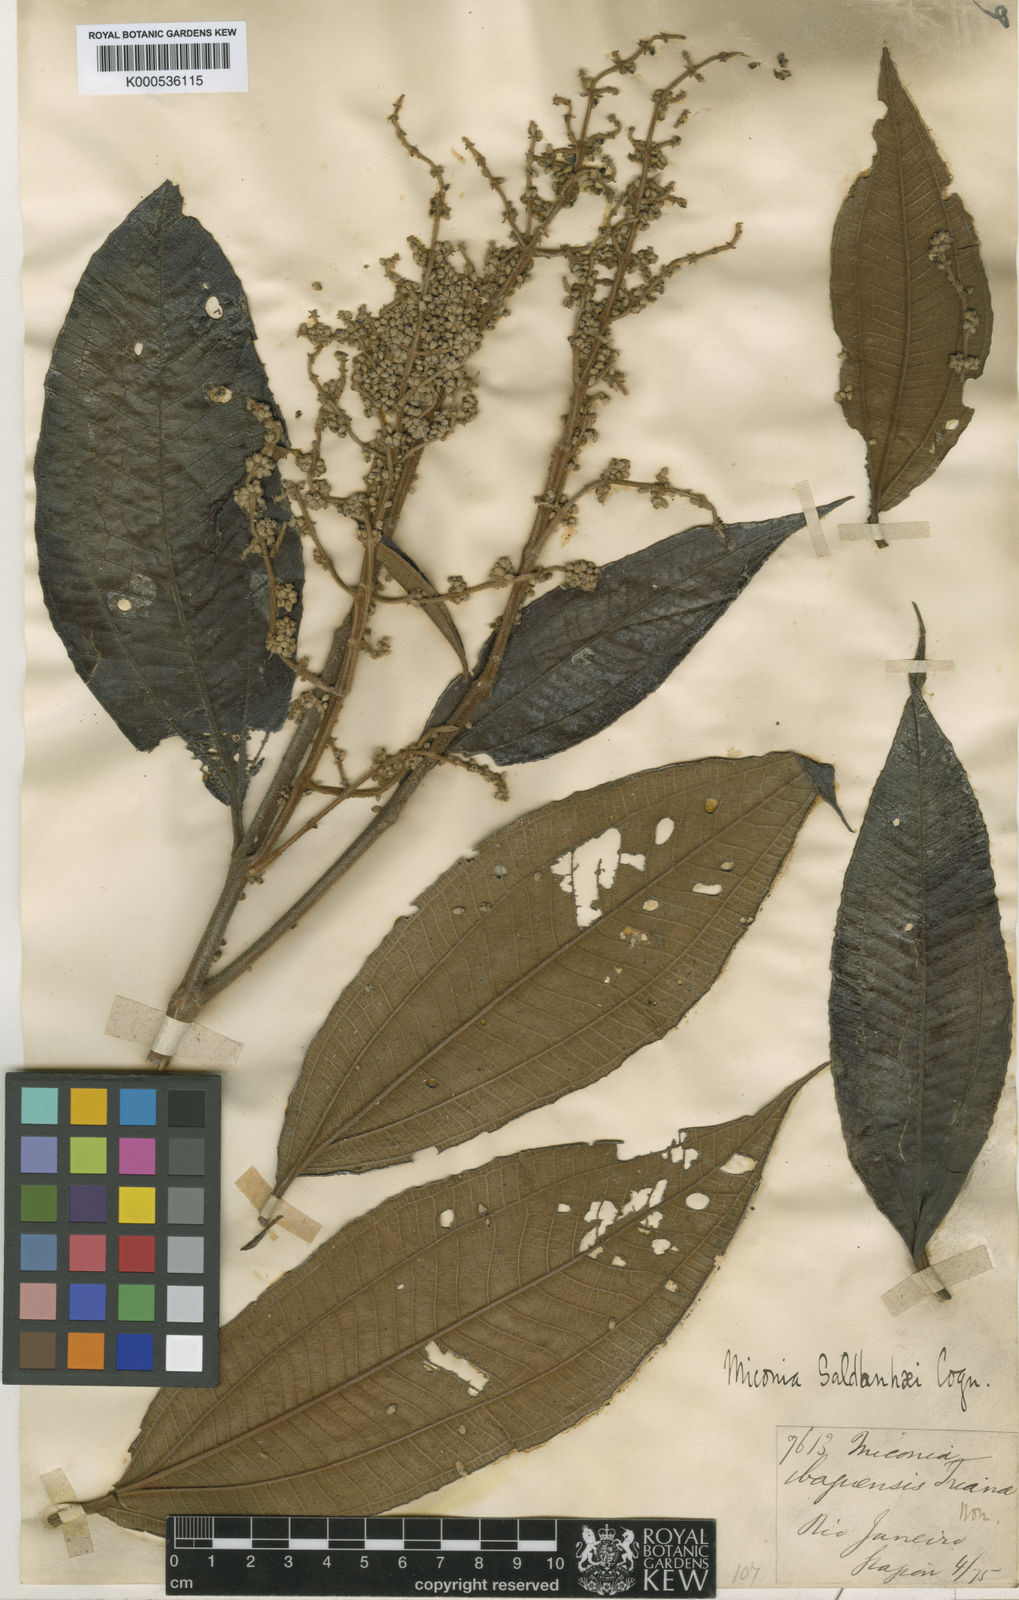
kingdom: Plantae
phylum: Tracheophyta
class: Magnoliopsida
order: Myrtales
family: Melastomataceae
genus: Miconia
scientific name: Miconia fasciculata
